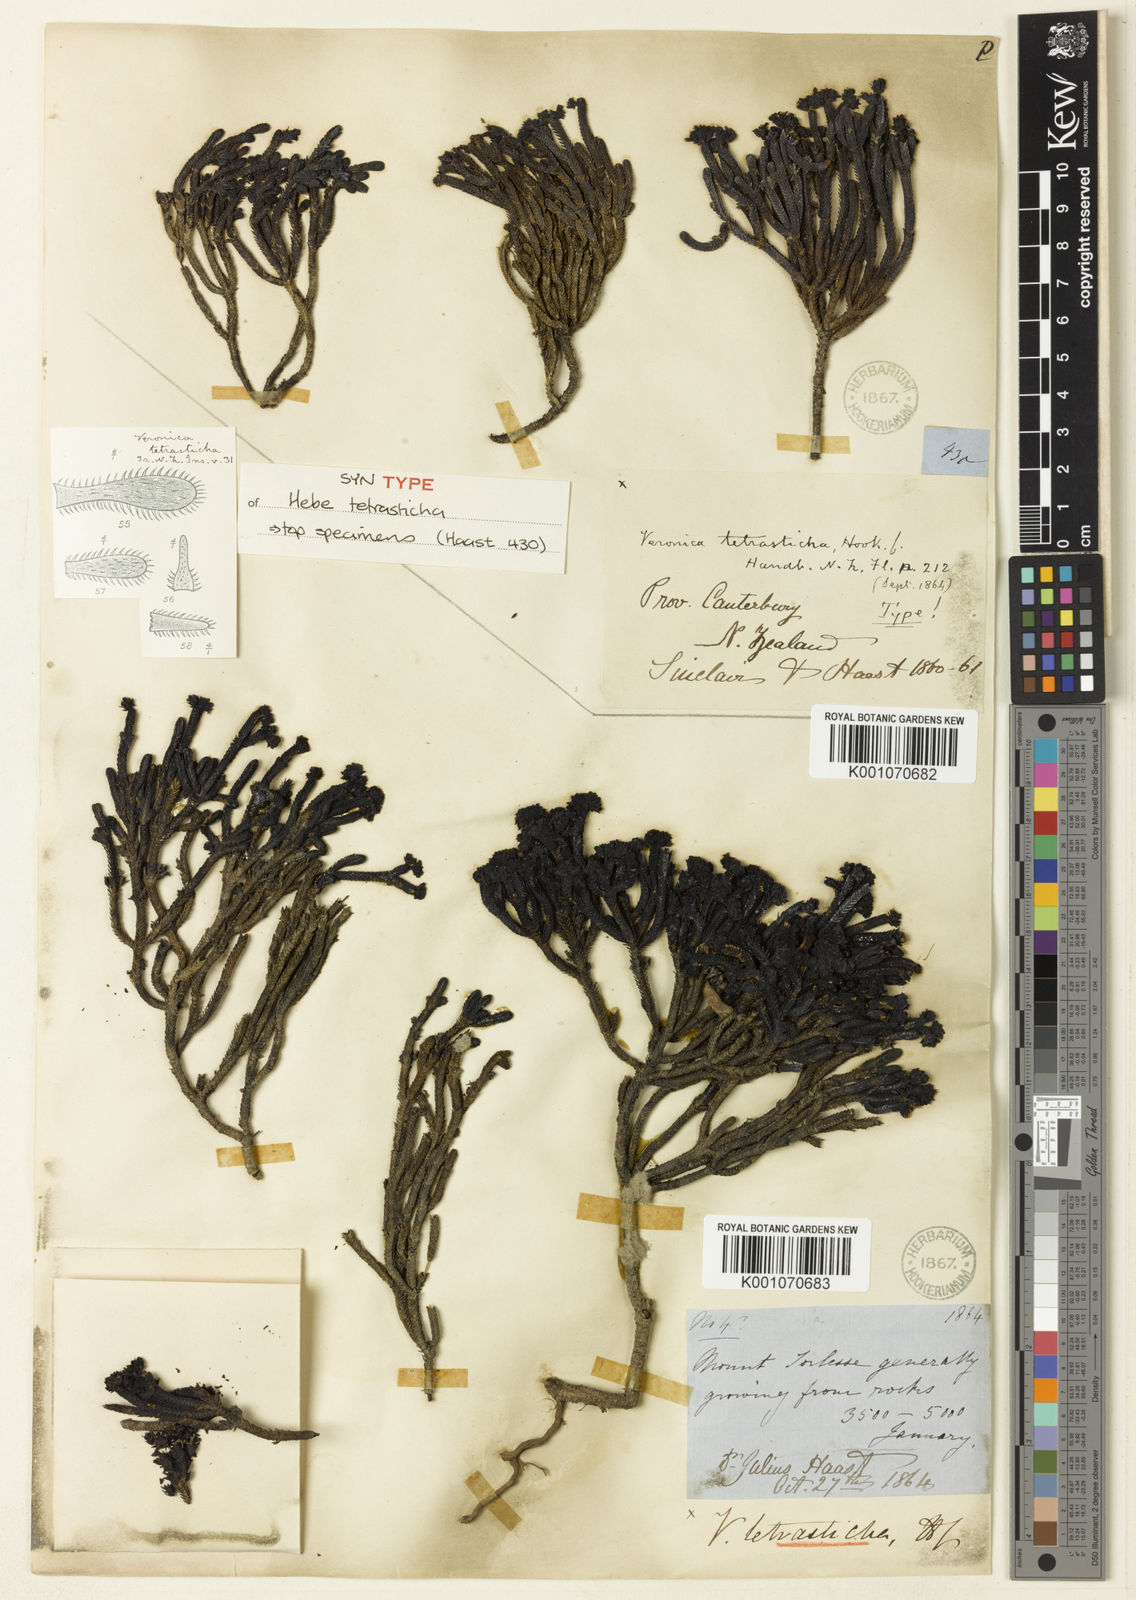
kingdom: Plantae
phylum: Tracheophyta
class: Magnoliopsida
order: Lamiales
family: Plantaginaceae
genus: Veronica
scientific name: Veronica
